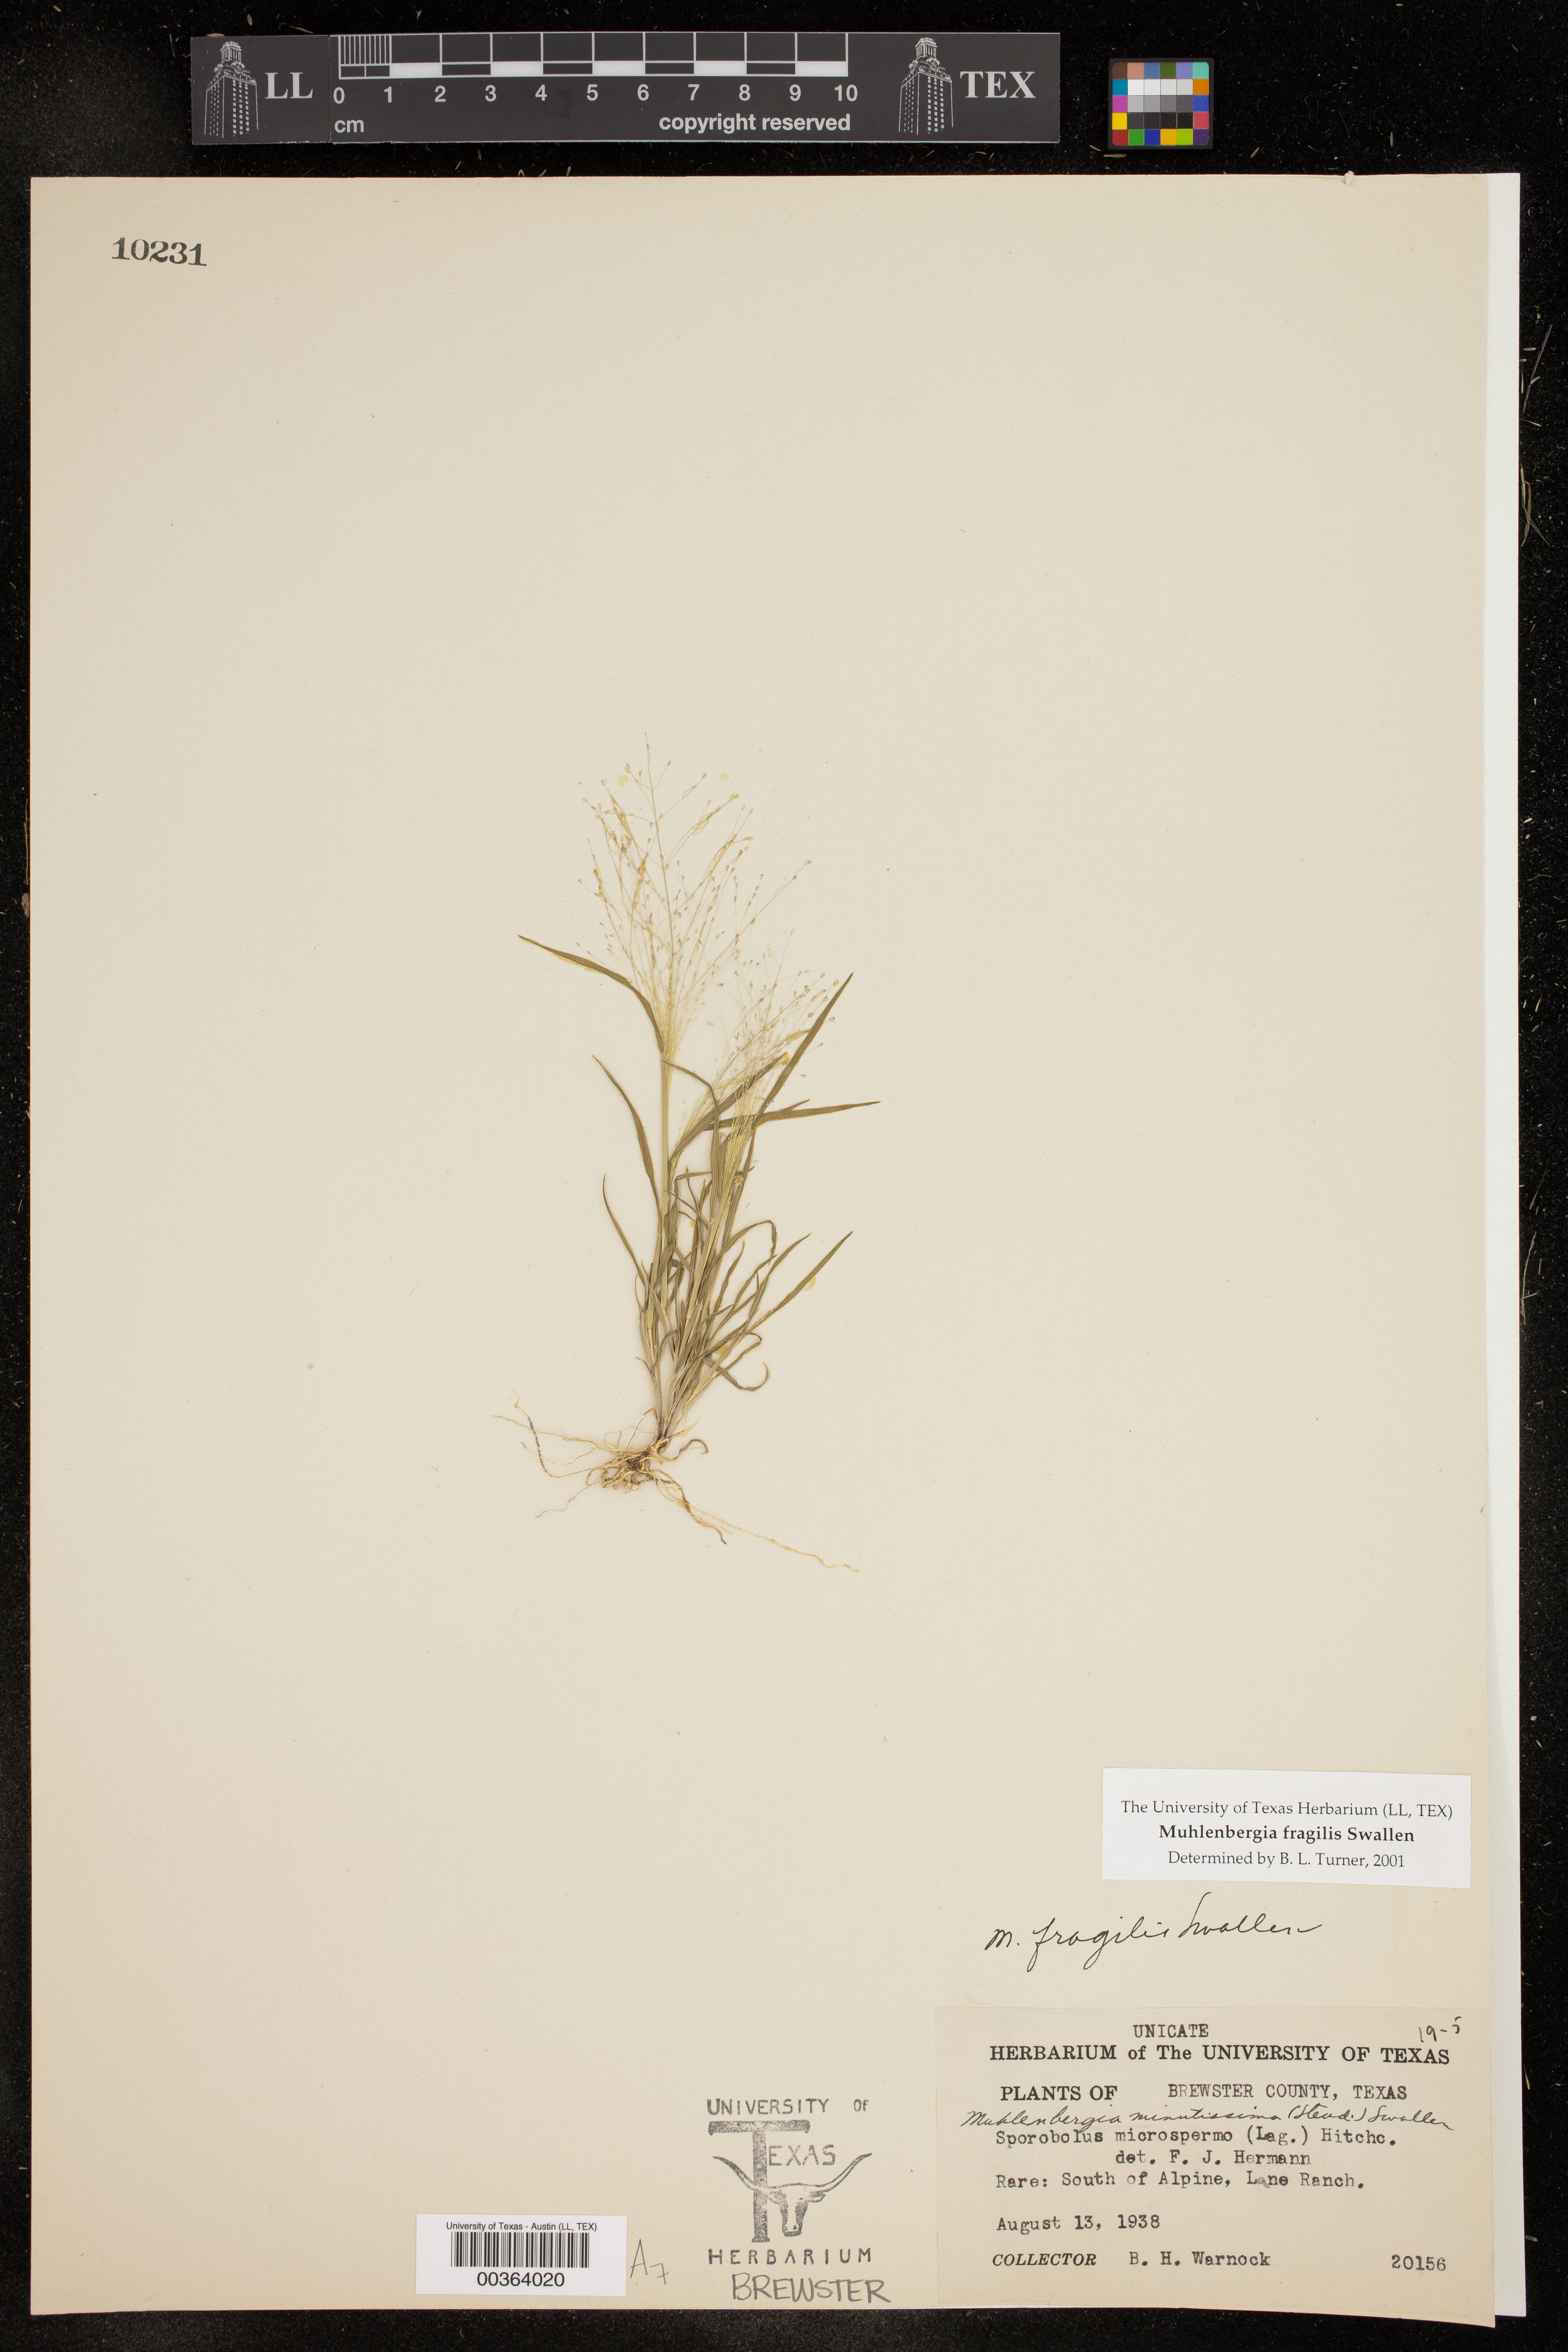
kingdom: Plantae
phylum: Tracheophyta
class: Liliopsida
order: Poales
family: Poaceae
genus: Muhlenbergia
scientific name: Muhlenbergia fragilis
